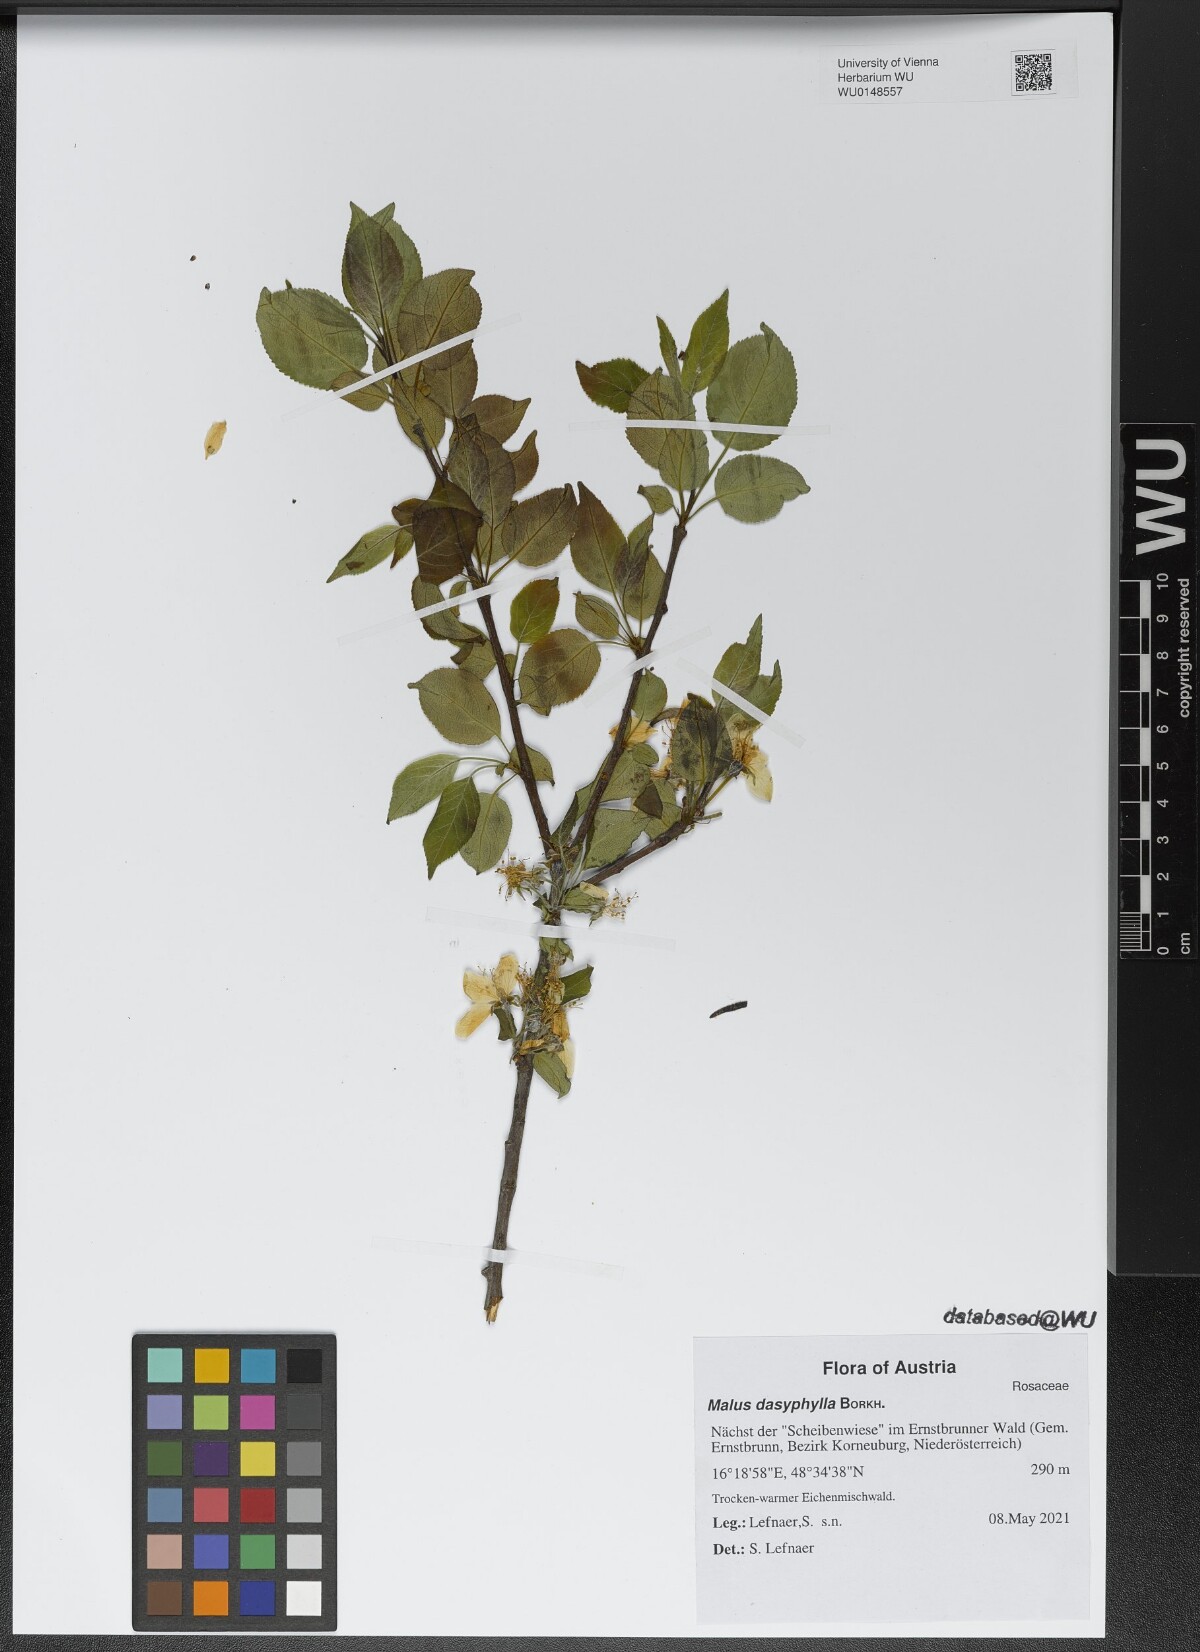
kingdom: Plantae
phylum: Tracheophyta
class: Magnoliopsida
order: Rosales
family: Rosaceae
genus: Malus
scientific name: Malus dasyphylla
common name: Paradise apple
